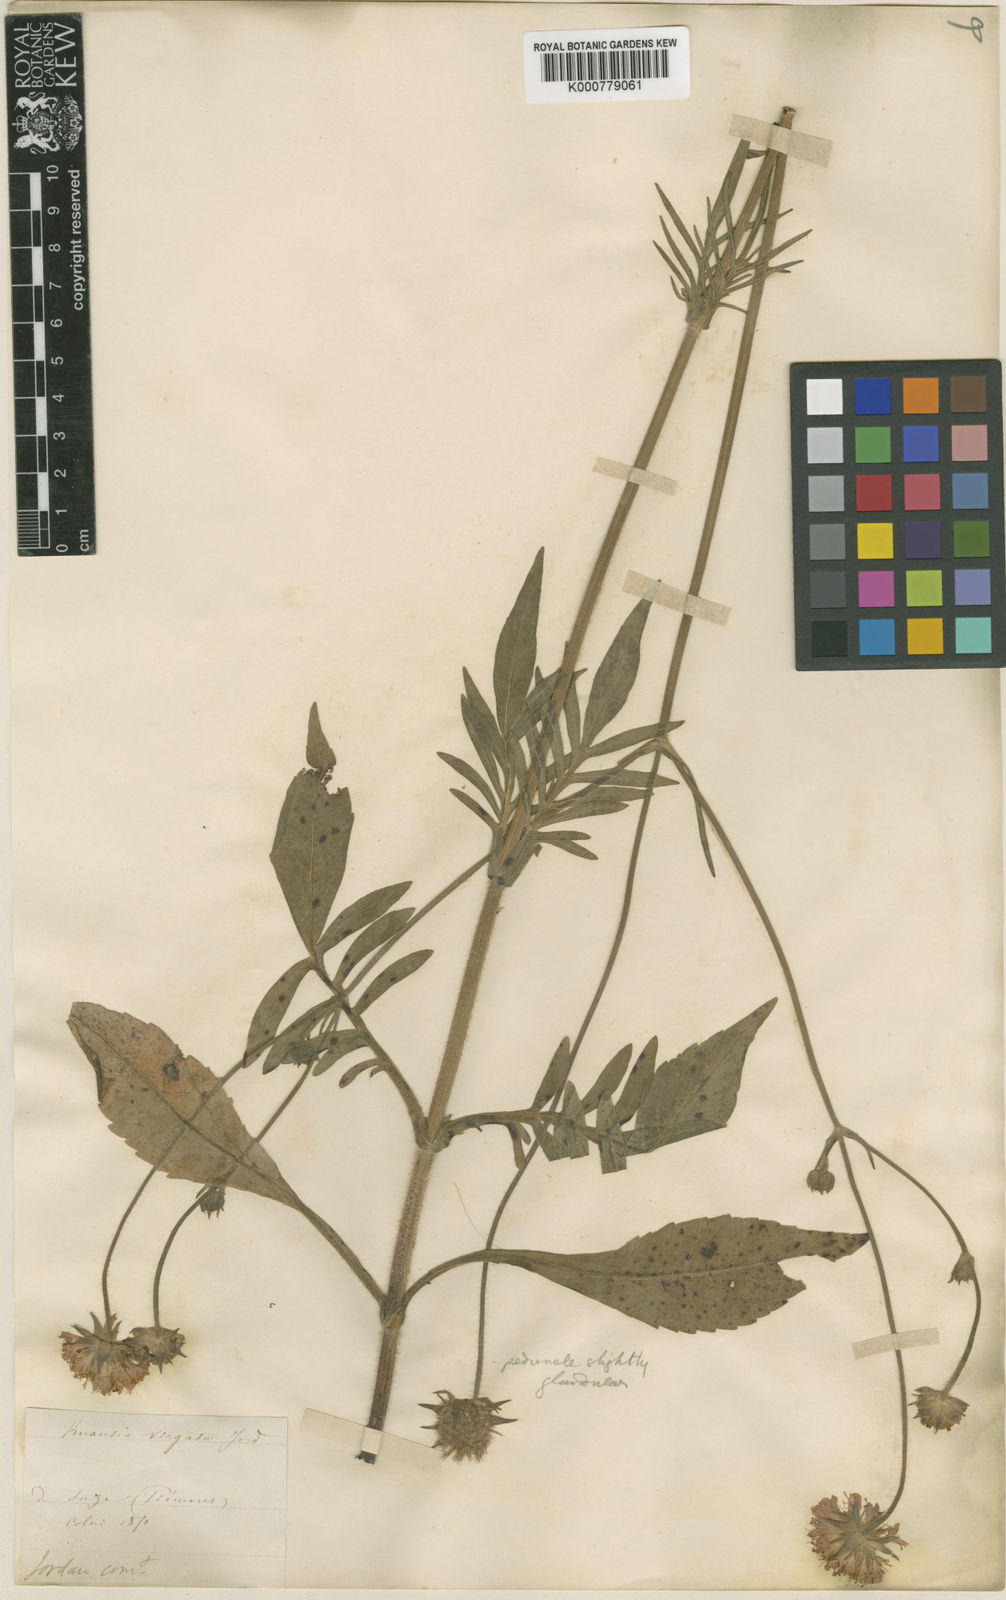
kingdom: Plantae
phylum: Tracheophyta
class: Magnoliopsida
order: Dipsacales
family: Caprifoliaceae
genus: Knautia
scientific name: Knautia
